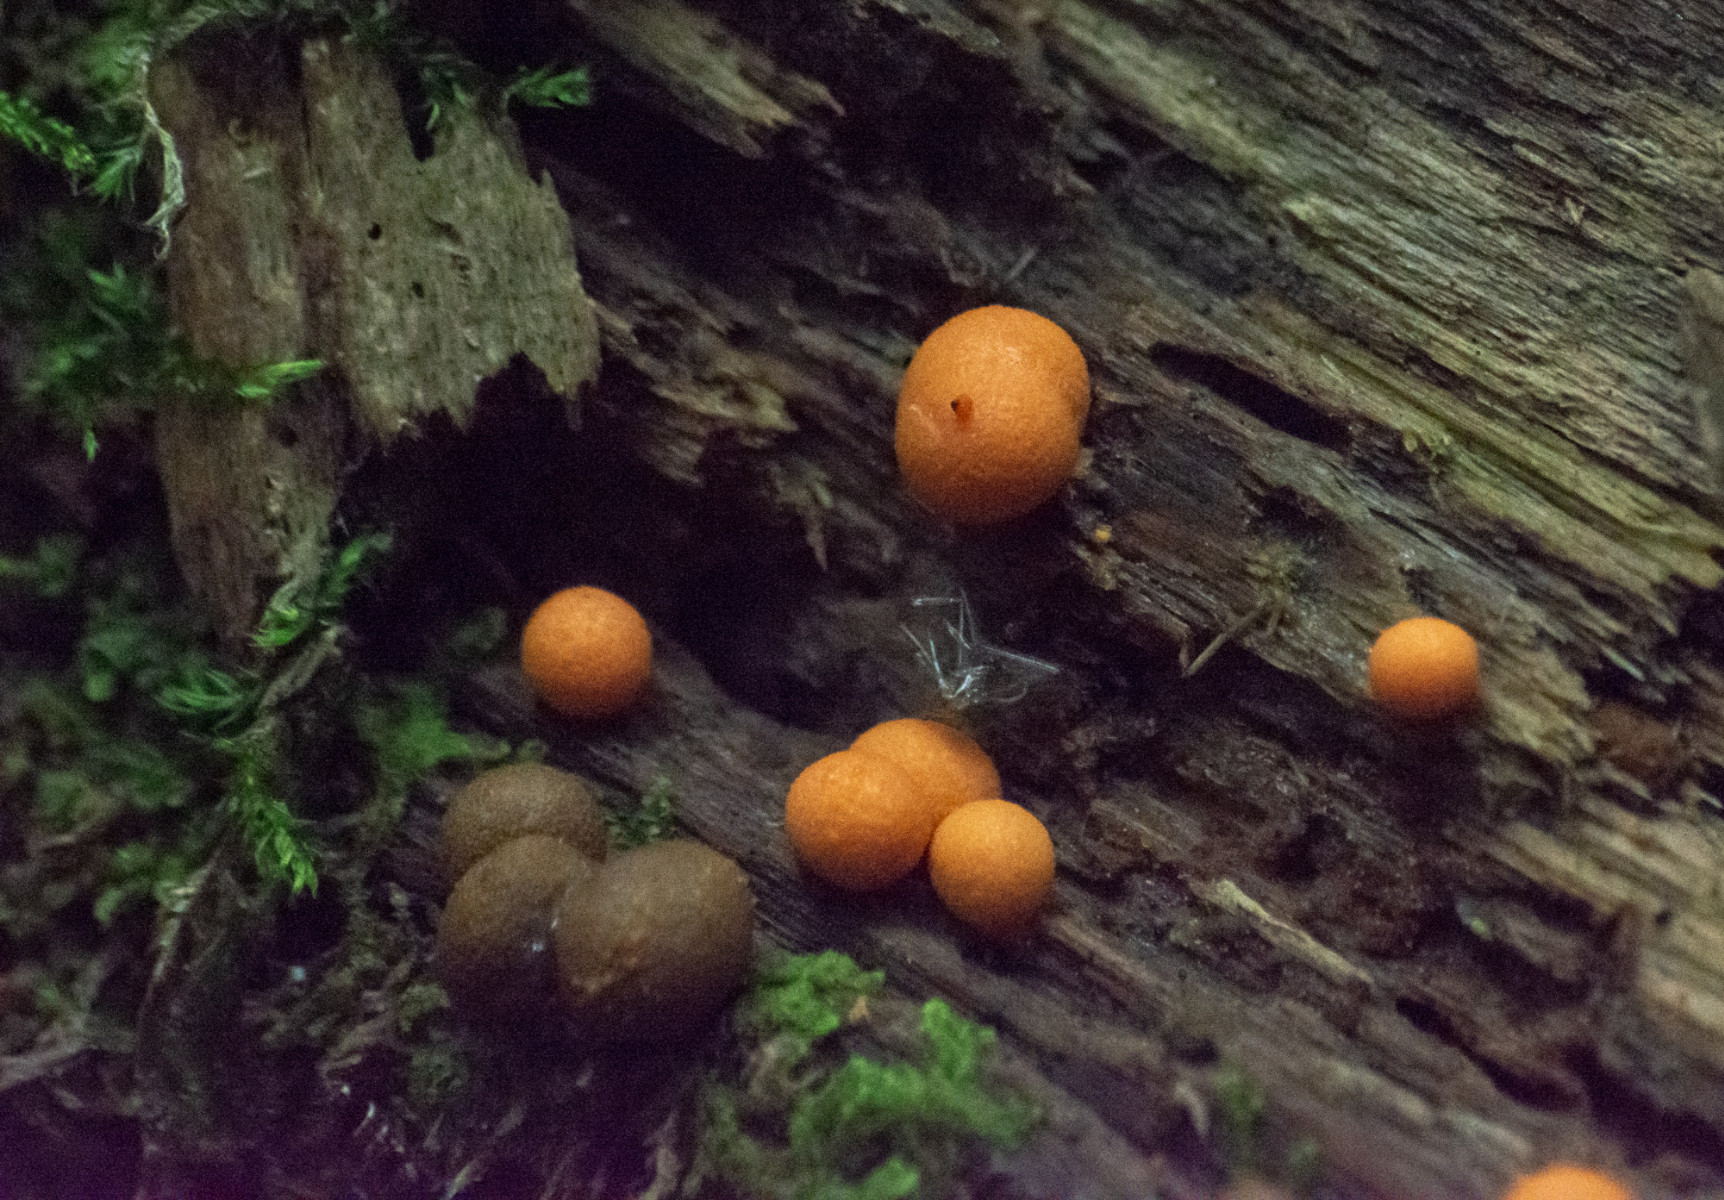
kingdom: Protozoa
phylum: Mycetozoa
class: Myxomycetes
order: Cribrariales
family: Tubiferaceae
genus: Lycogala
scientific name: Lycogala
